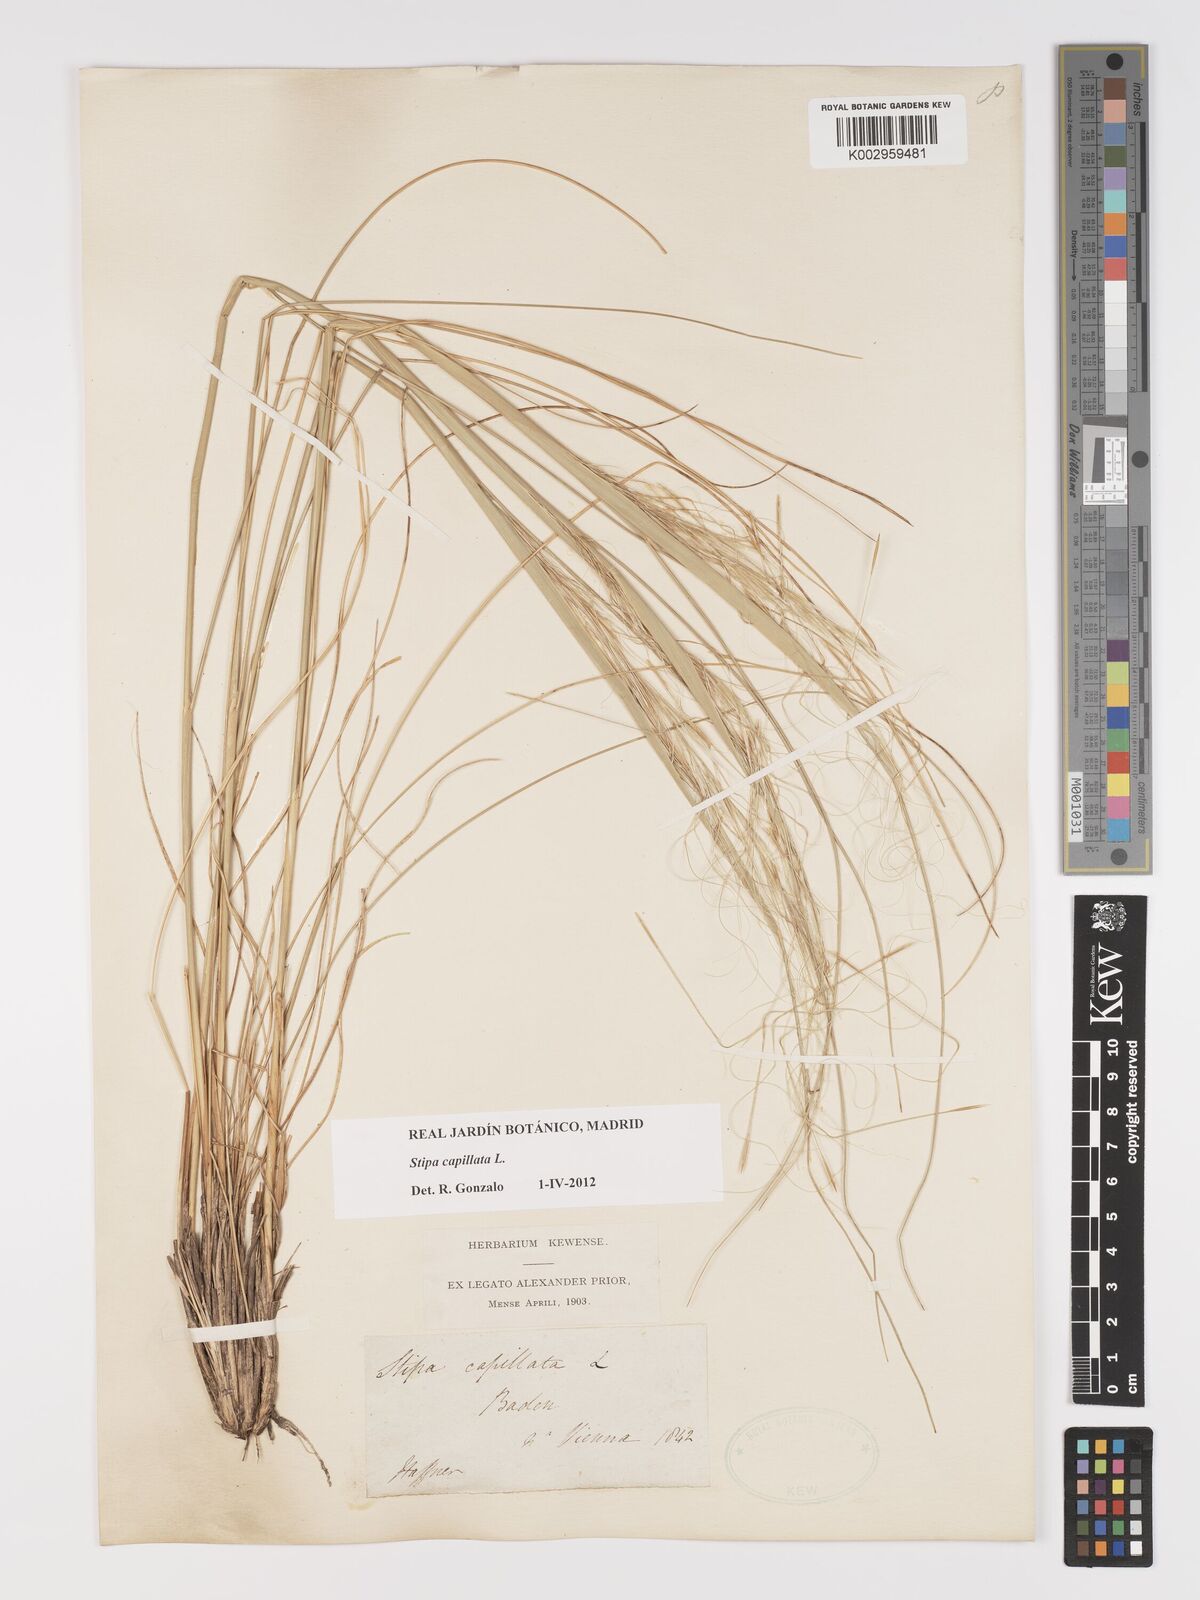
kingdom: Plantae
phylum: Tracheophyta
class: Liliopsida
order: Poales
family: Poaceae
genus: Stipa
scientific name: Stipa capillata
